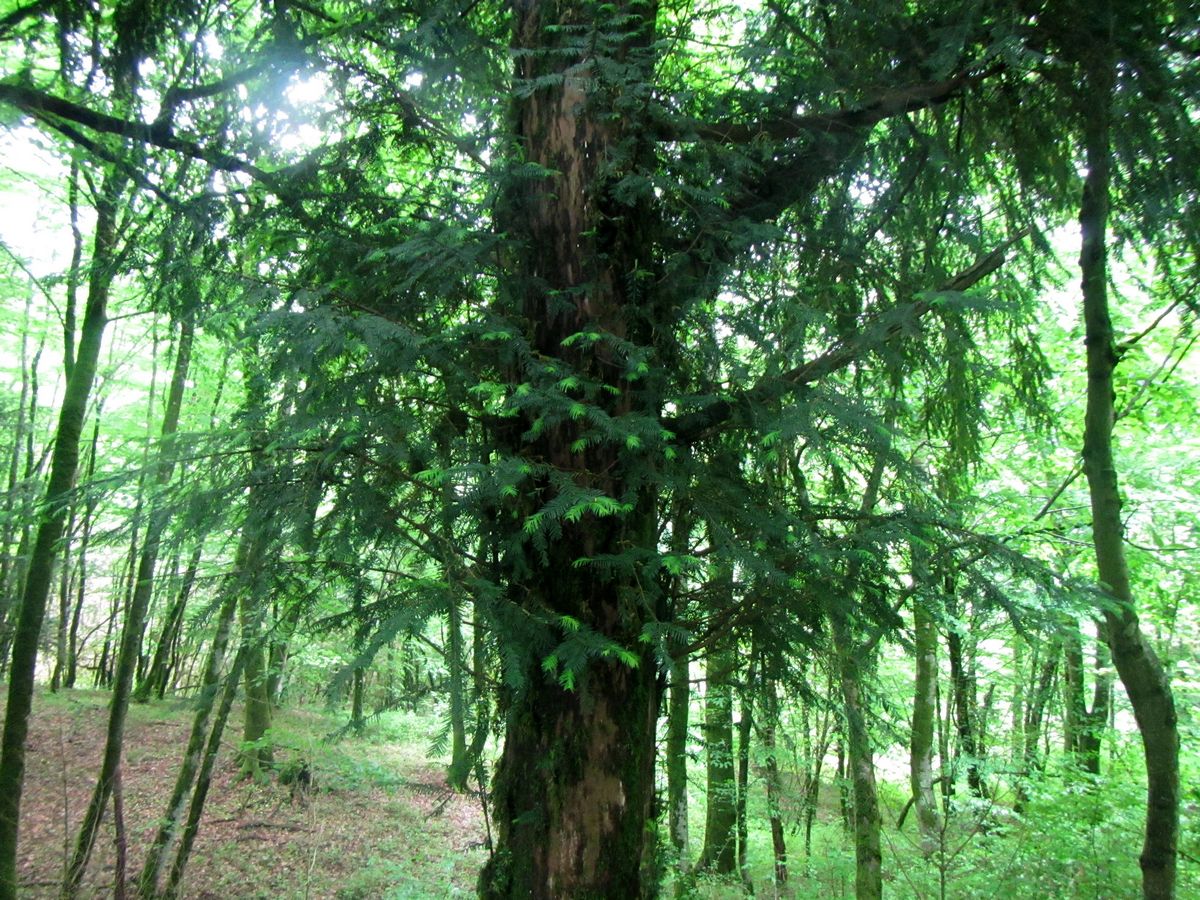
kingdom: Plantae
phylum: Tracheophyta
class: Pinopsida
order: Pinales
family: Taxaceae
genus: Taxus
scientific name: Taxus baccata
